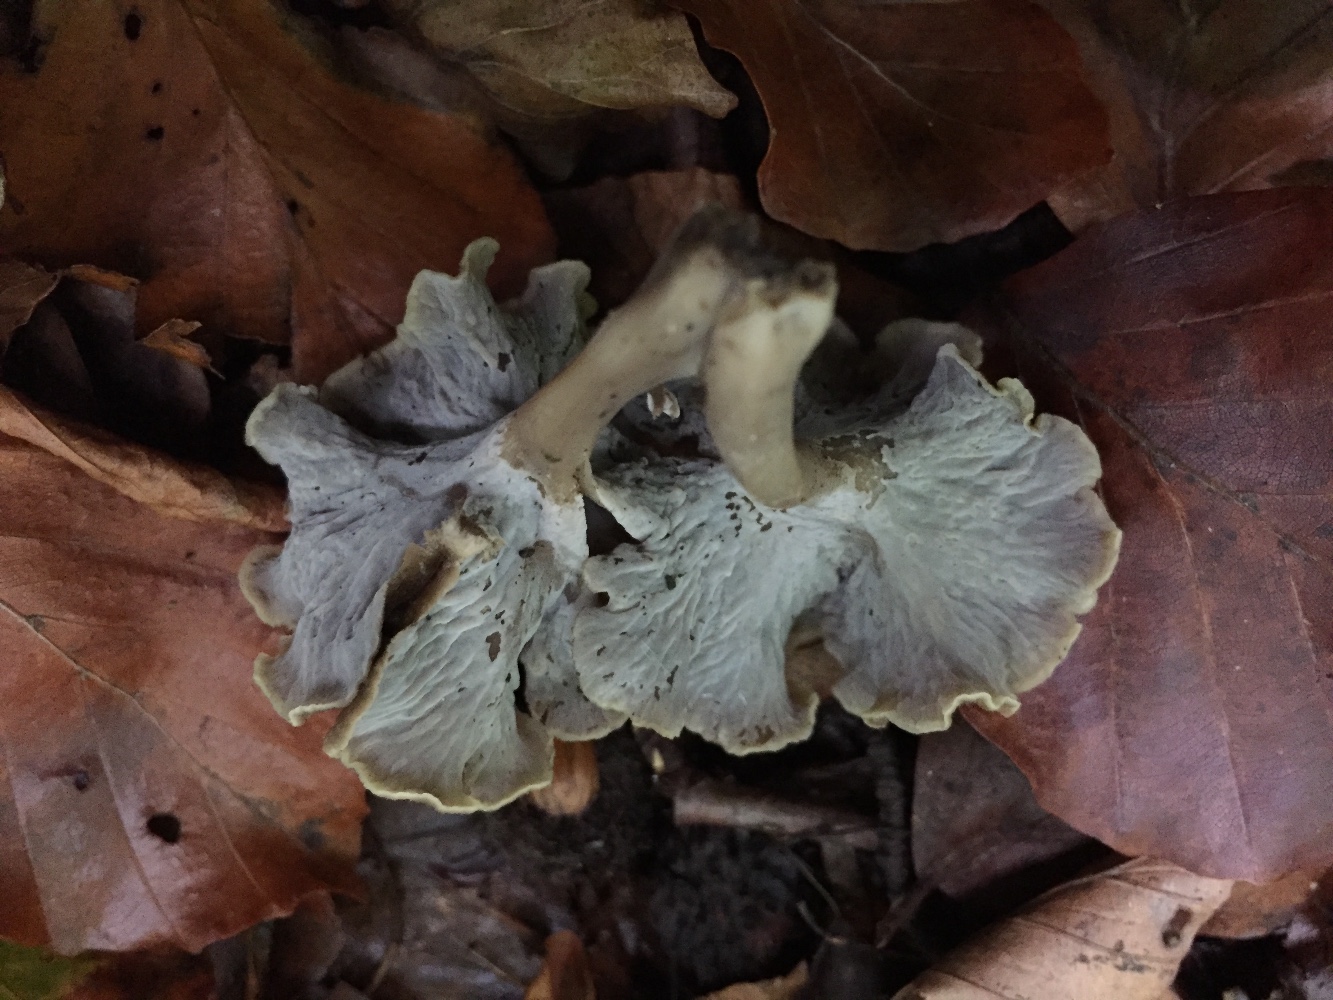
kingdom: Fungi
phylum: Basidiomycota
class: Agaricomycetes
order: Cantharellales
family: Hydnaceae
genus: Craterellus
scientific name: Craterellus undulatus
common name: liden kantarel
